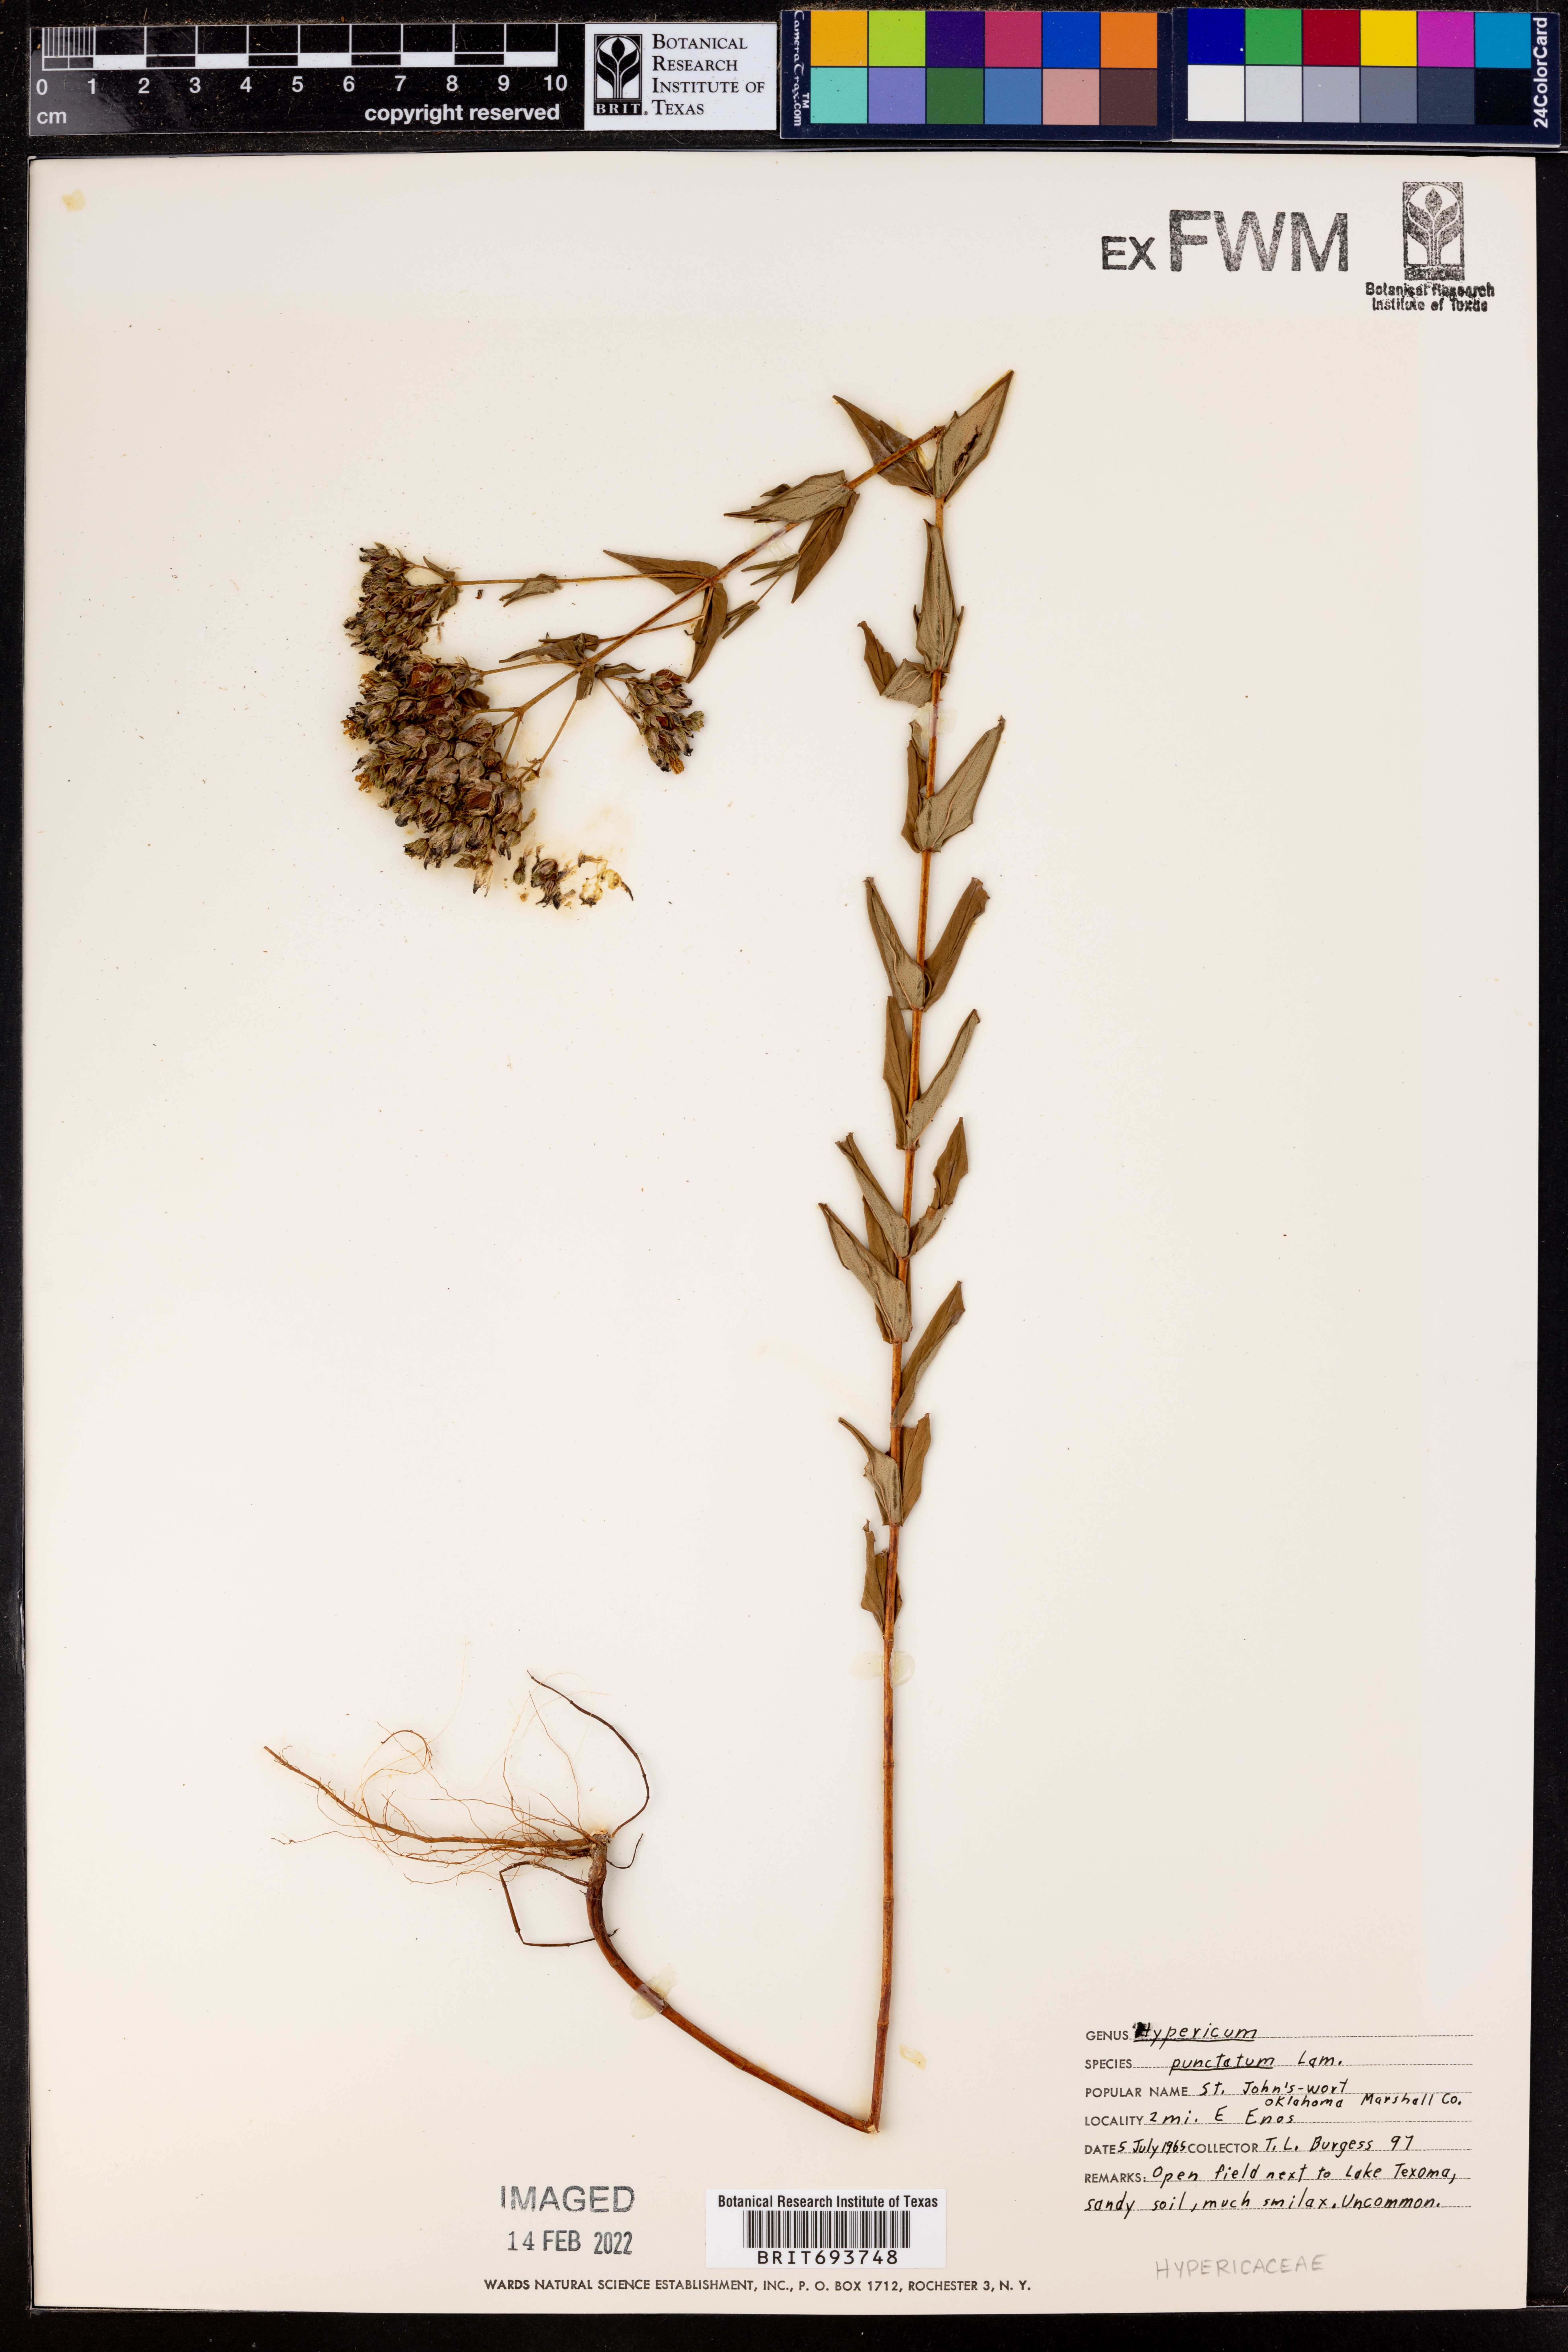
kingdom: Plantae
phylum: Tracheophyta
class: Magnoliopsida
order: Malpighiales
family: Hypericaceae
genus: Hypericum
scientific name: Hypericum punctatum
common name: Spotted st. john's-wort
